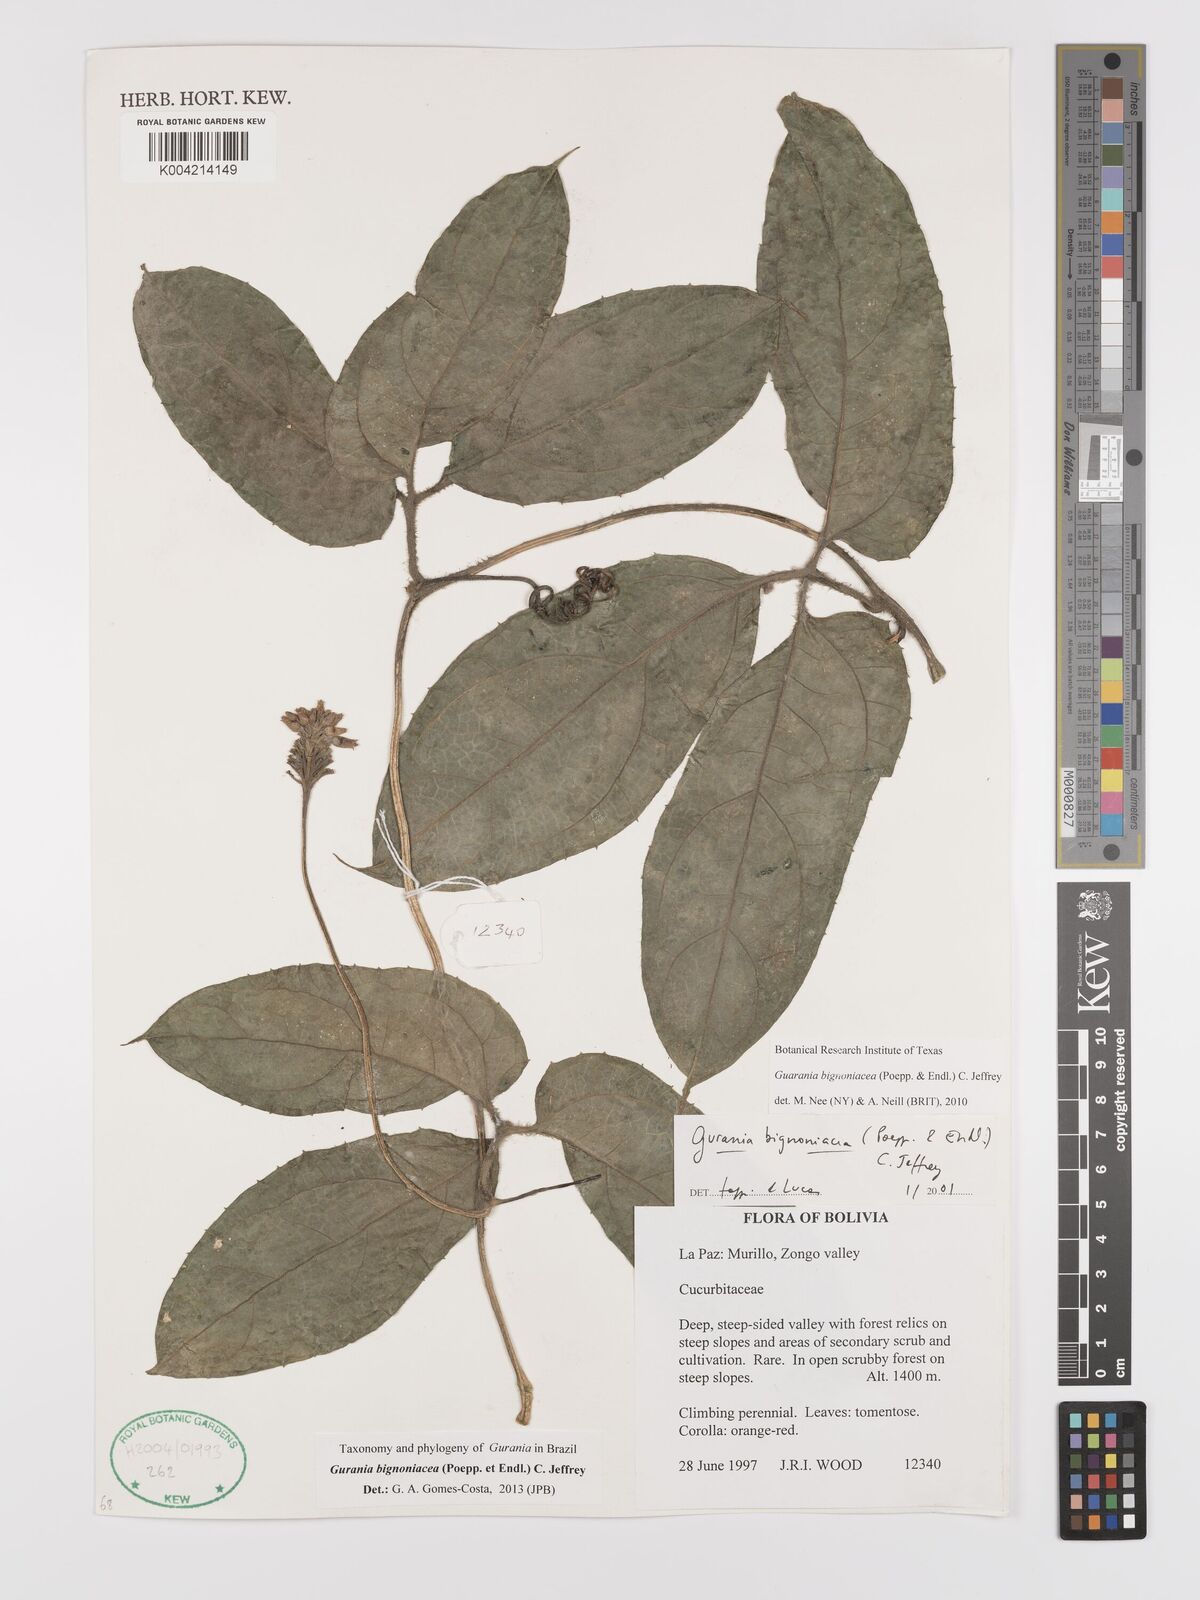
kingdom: Plantae
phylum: Tracheophyta
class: Magnoliopsida
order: Cucurbitales
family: Cucurbitaceae
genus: Gurania
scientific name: Gurania bignoniacea
